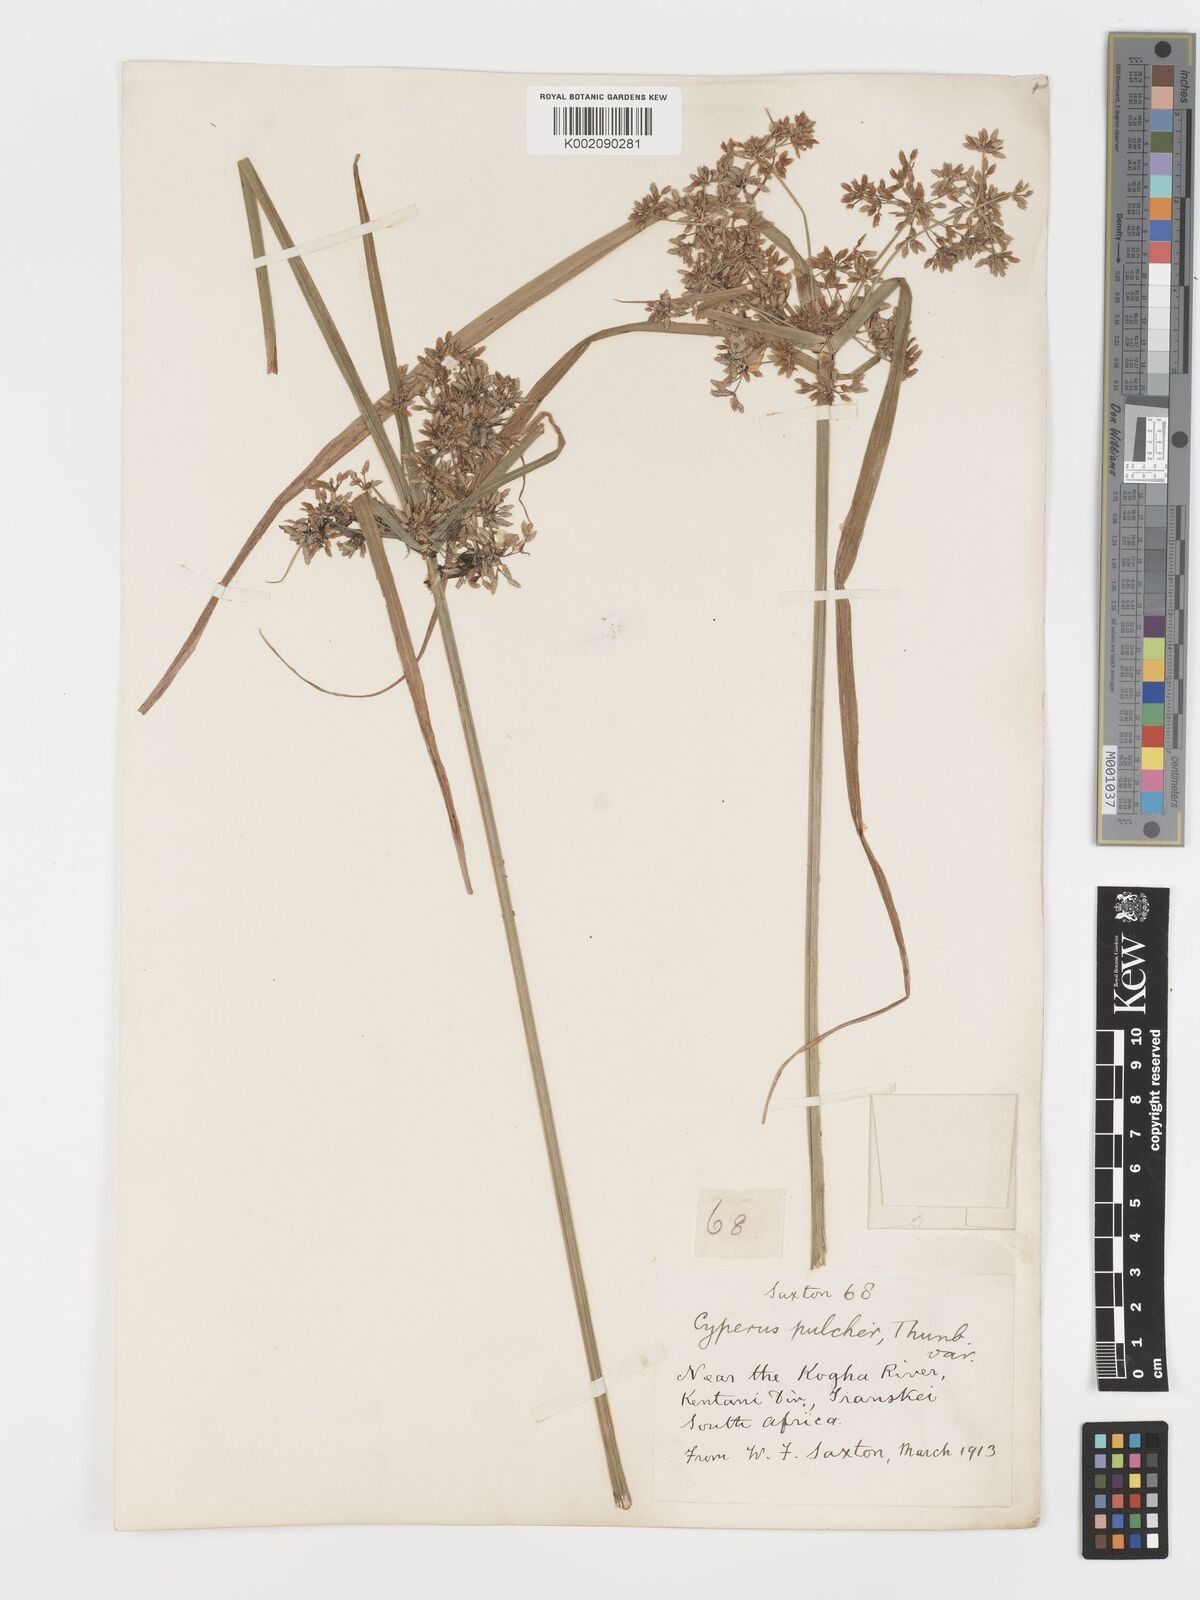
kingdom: Plantae
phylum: Tracheophyta
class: Liliopsida
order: Poales
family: Cyperaceae
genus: Cyperus
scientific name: Cyperus pulcher
